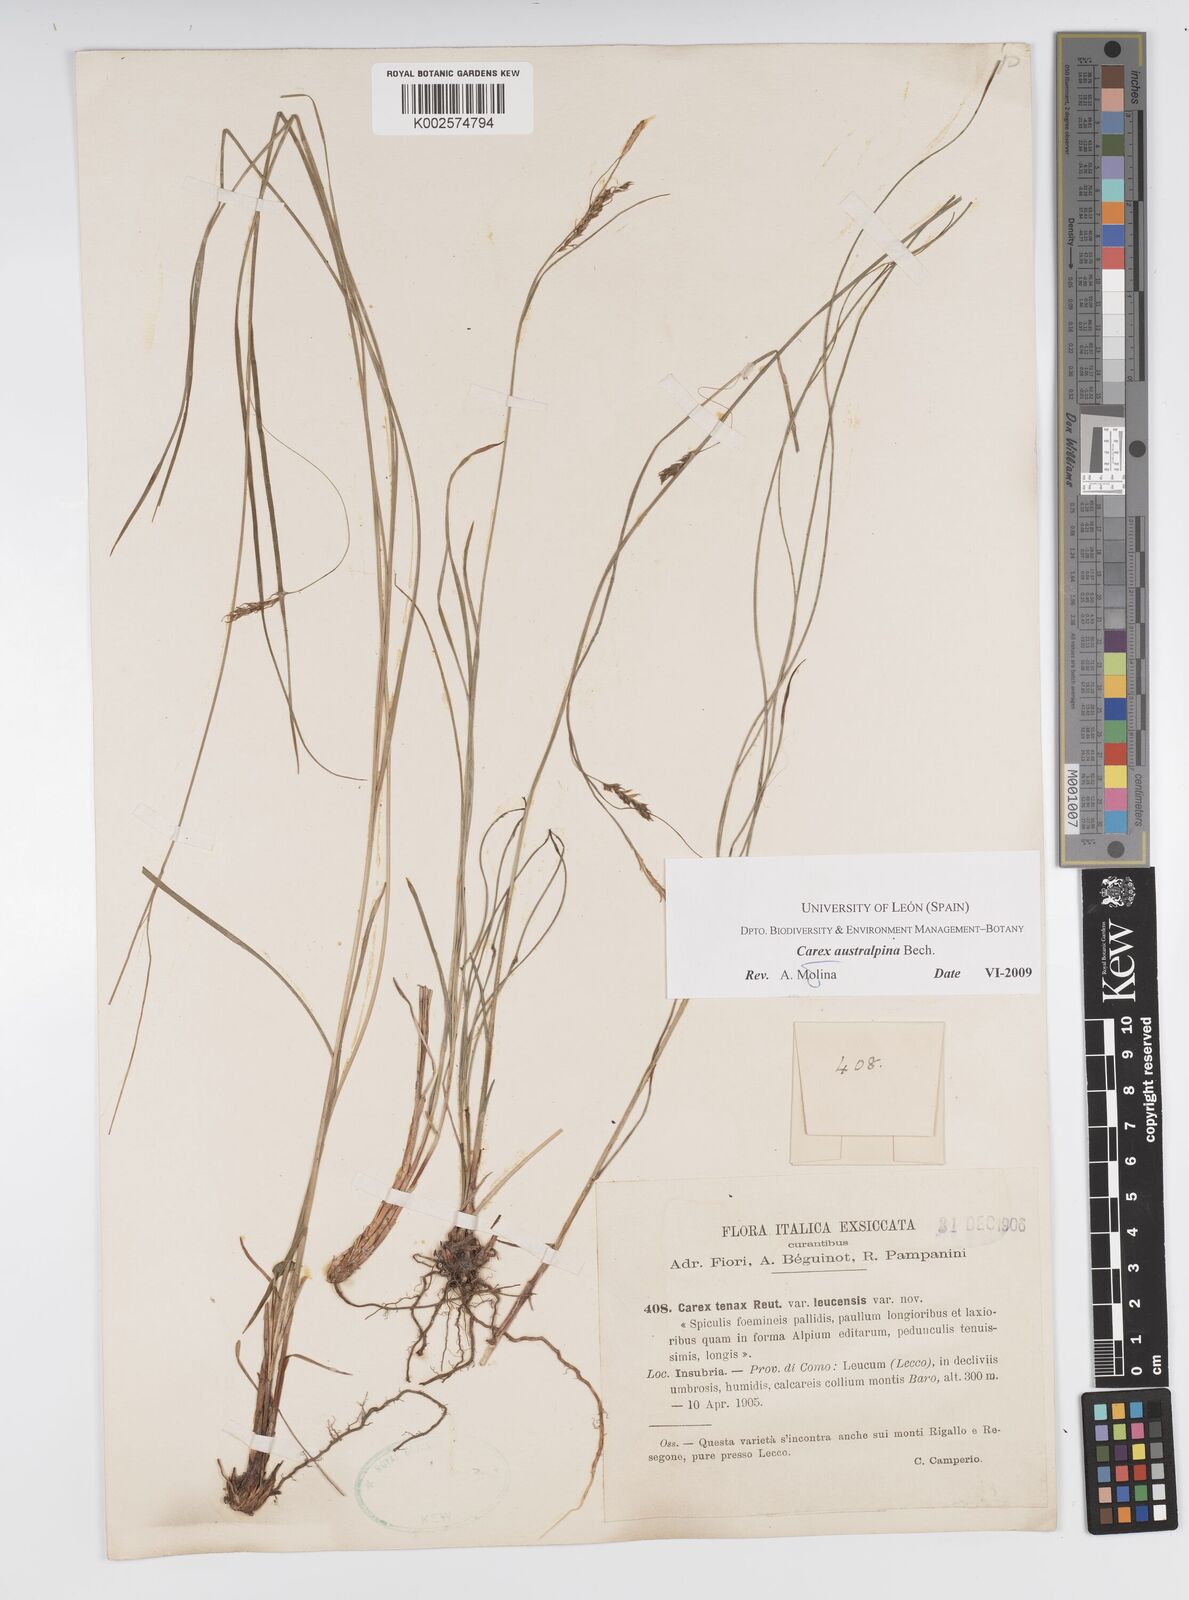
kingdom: Plantae
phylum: Tracheophyta
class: Liliopsida
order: Poales
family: Cyperaceae
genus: Carex
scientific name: Carex austroalpina
